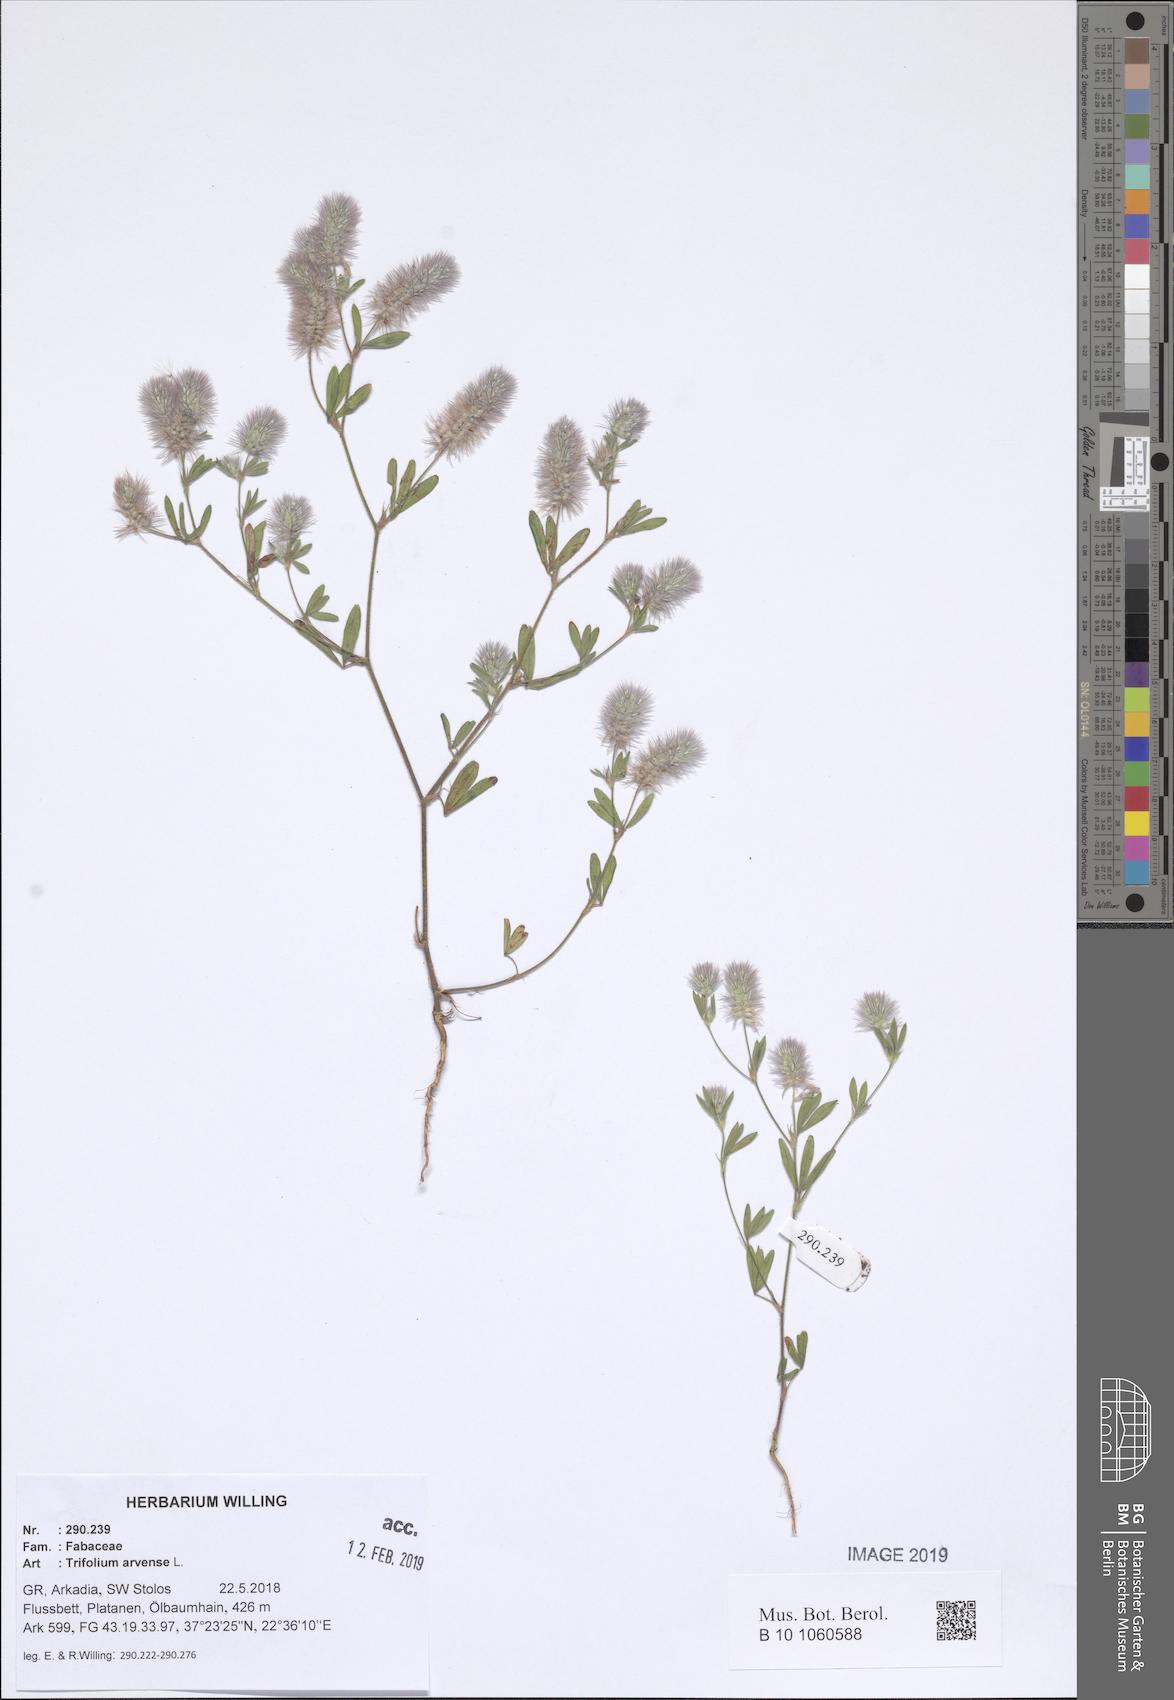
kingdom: Plantae
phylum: Tracheophyta
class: Magnoliopsida
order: Fabales
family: Fabaceae
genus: Trifolium
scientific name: Trifolium arvense
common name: Hare's-foot clover
